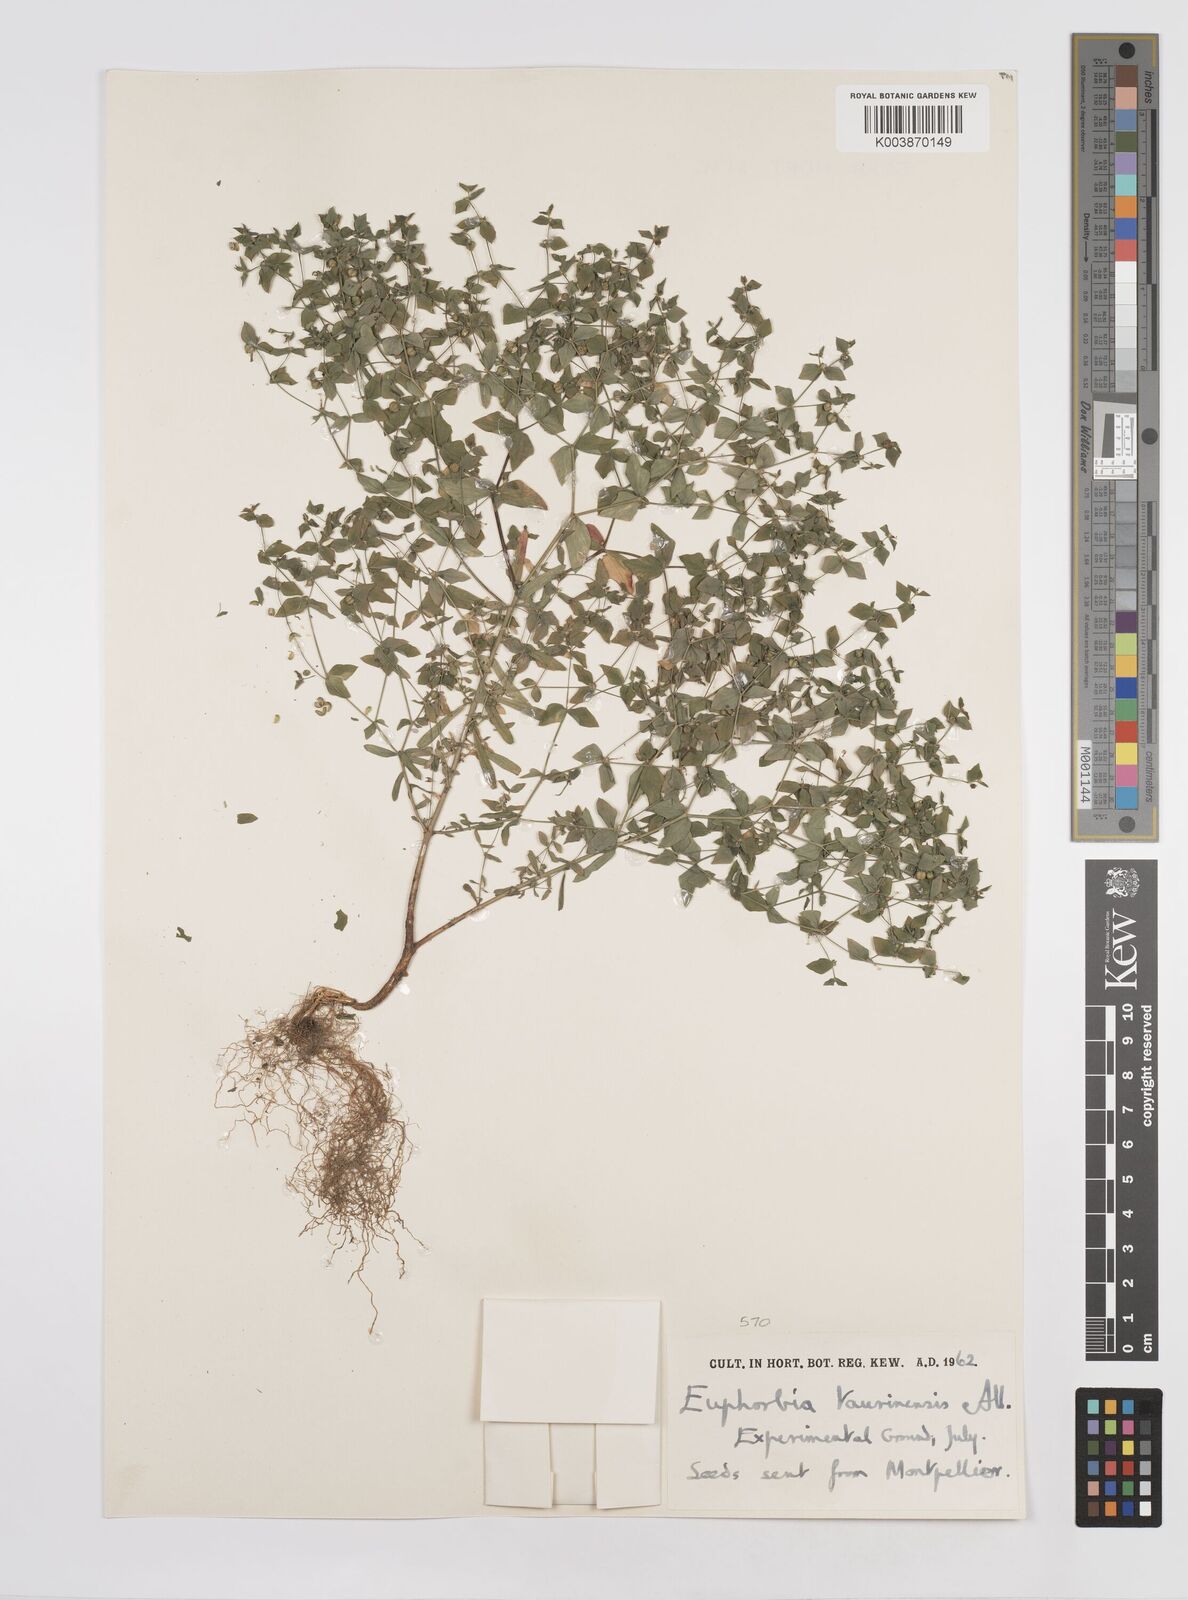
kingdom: Plantae
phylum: Tracheophyta
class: Magnoliopsida
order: Malpighiales
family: Euphorbiaceae
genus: Euphorbia
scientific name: Euphorbia taurinensis
